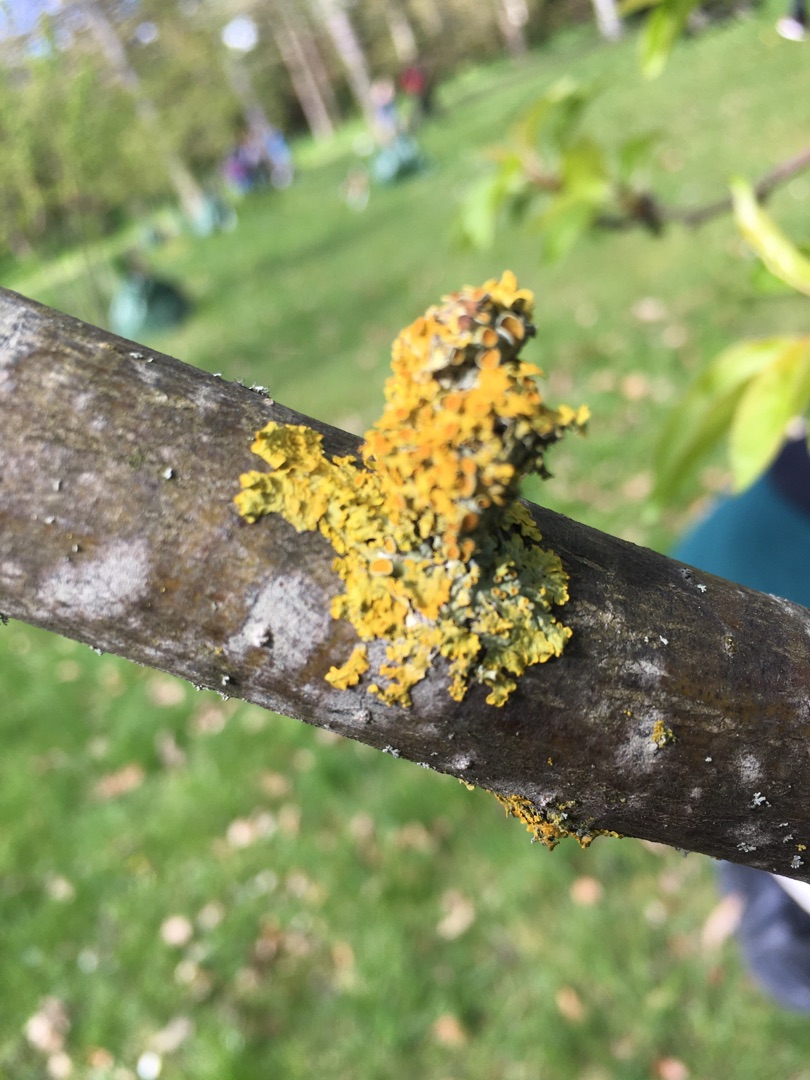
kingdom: Fungi
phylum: Ascomycota
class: Lecanoromycetes
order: Teloschistales
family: Teloschistaceae
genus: Xanthoria
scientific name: Xanthoria parietina
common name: Almindelig væggelav
